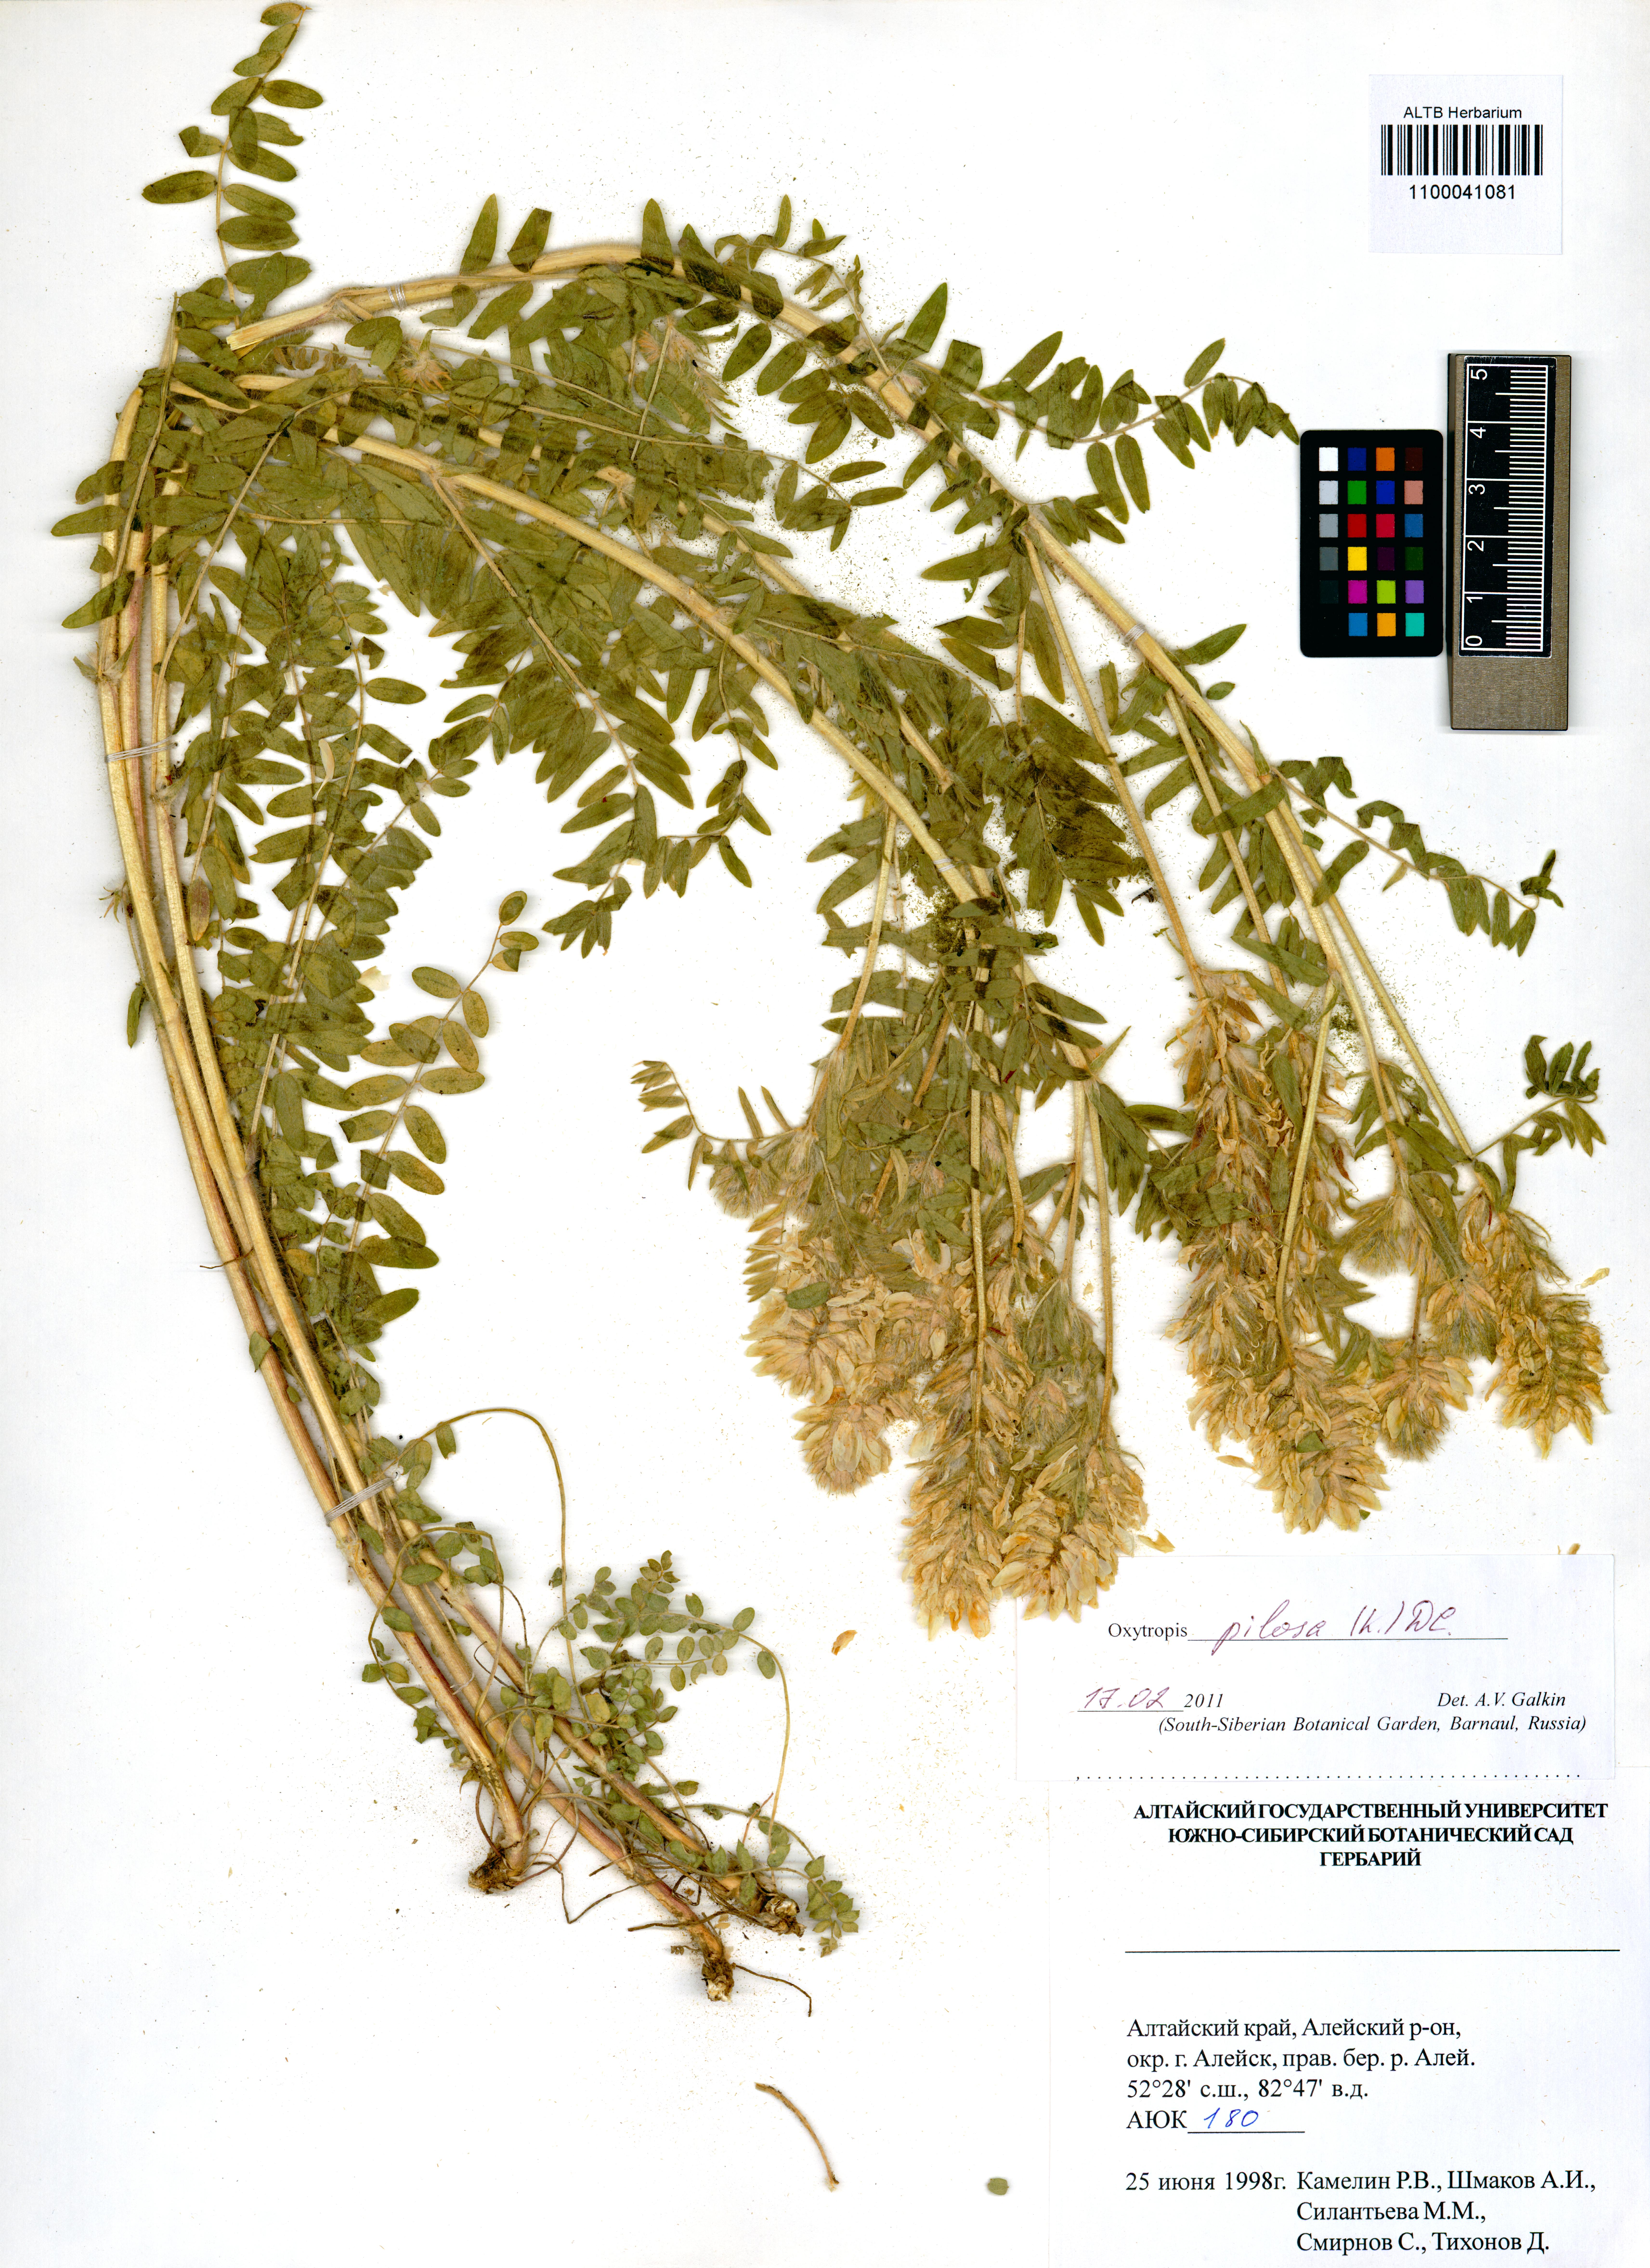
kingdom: Plantae
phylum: Tracheophyta
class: Magnoliopsida
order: Fabales
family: Fabaceae
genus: Oxytropis
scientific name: Oxytropis pilosa
